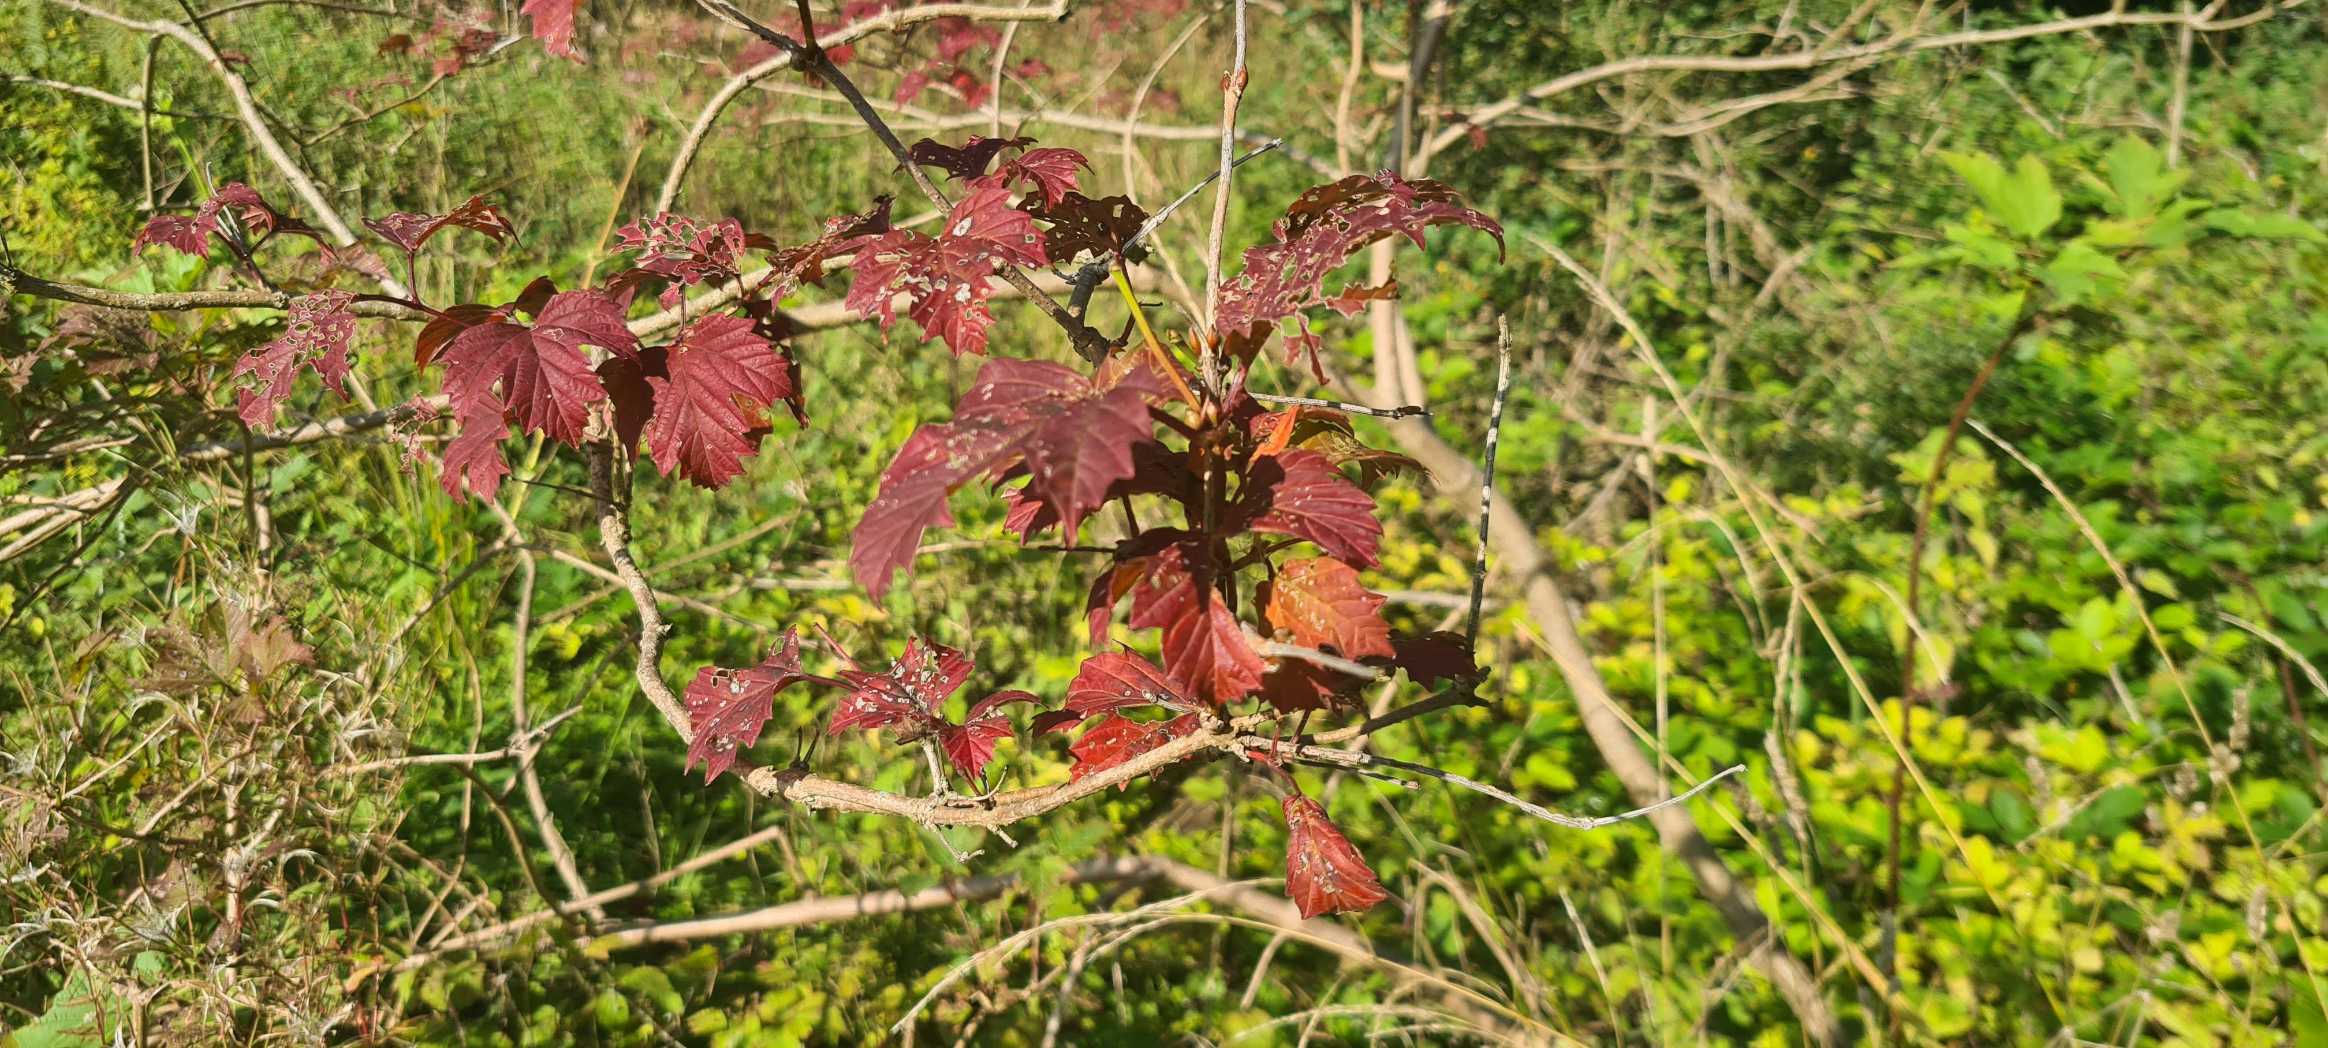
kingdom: Plantae
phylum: Tracheophyta
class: Magnoliopsida
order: Dipsacales
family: Viburnaceae
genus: Viburnum
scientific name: Viburnum opulus
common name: Kvalkved
